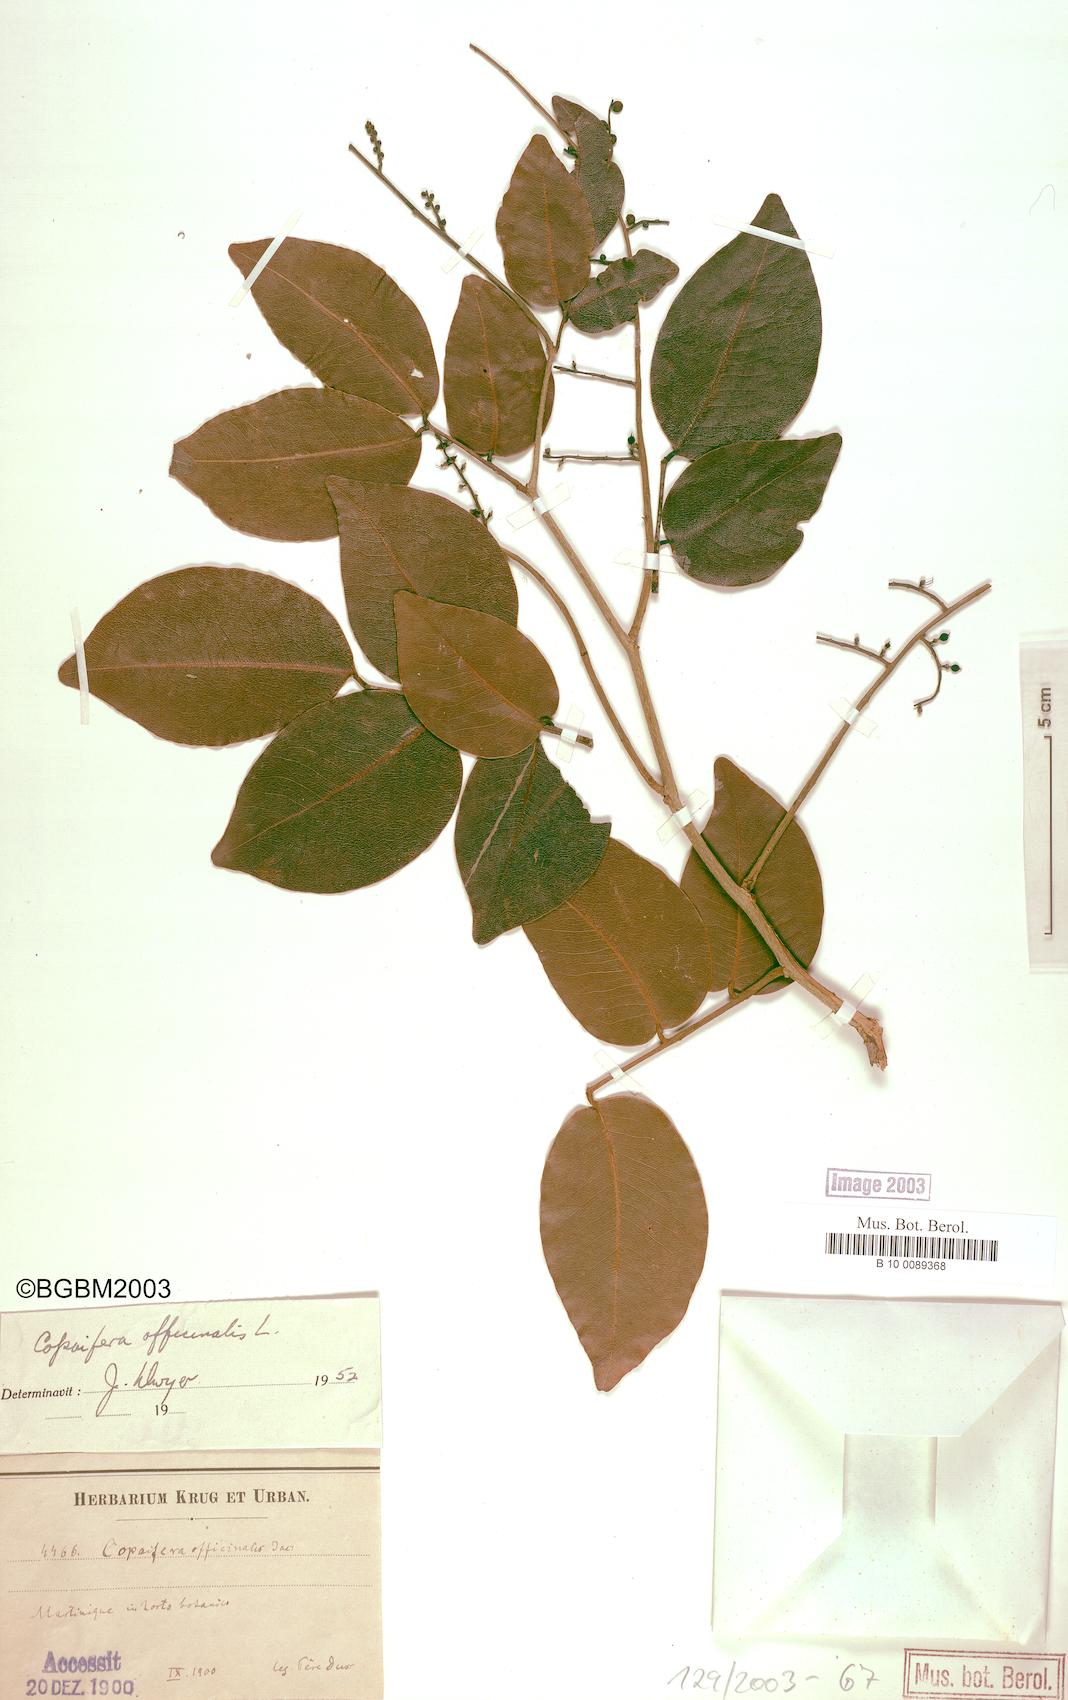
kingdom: Plantae
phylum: Tracheophyta
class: Magnoliopsida
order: Fabales
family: Fabaceae
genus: Copaifera
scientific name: Copaifera officinalis
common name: Copaiba
